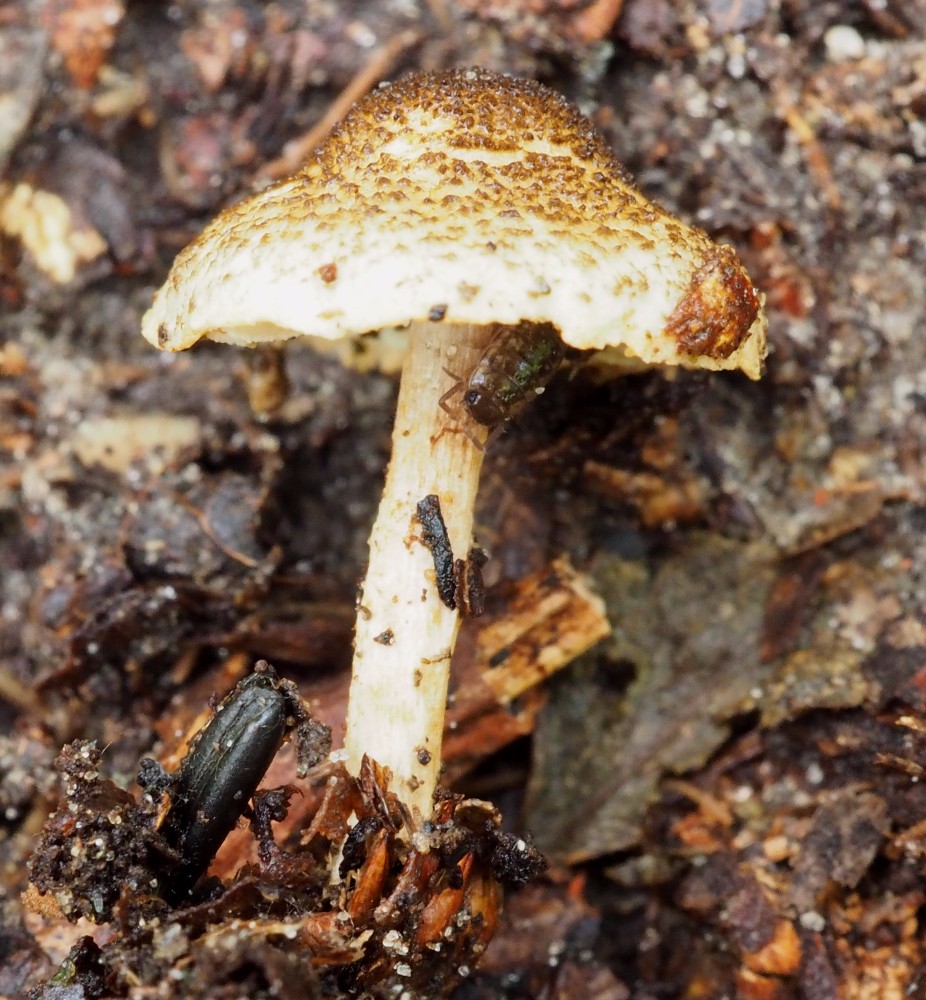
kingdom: Fungi
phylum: Basidiomycota
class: Agaricomycetes
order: Agaricales
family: Agaricaceae
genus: Lepiota
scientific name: Lepiota tomentella
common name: filtet parasolhat
